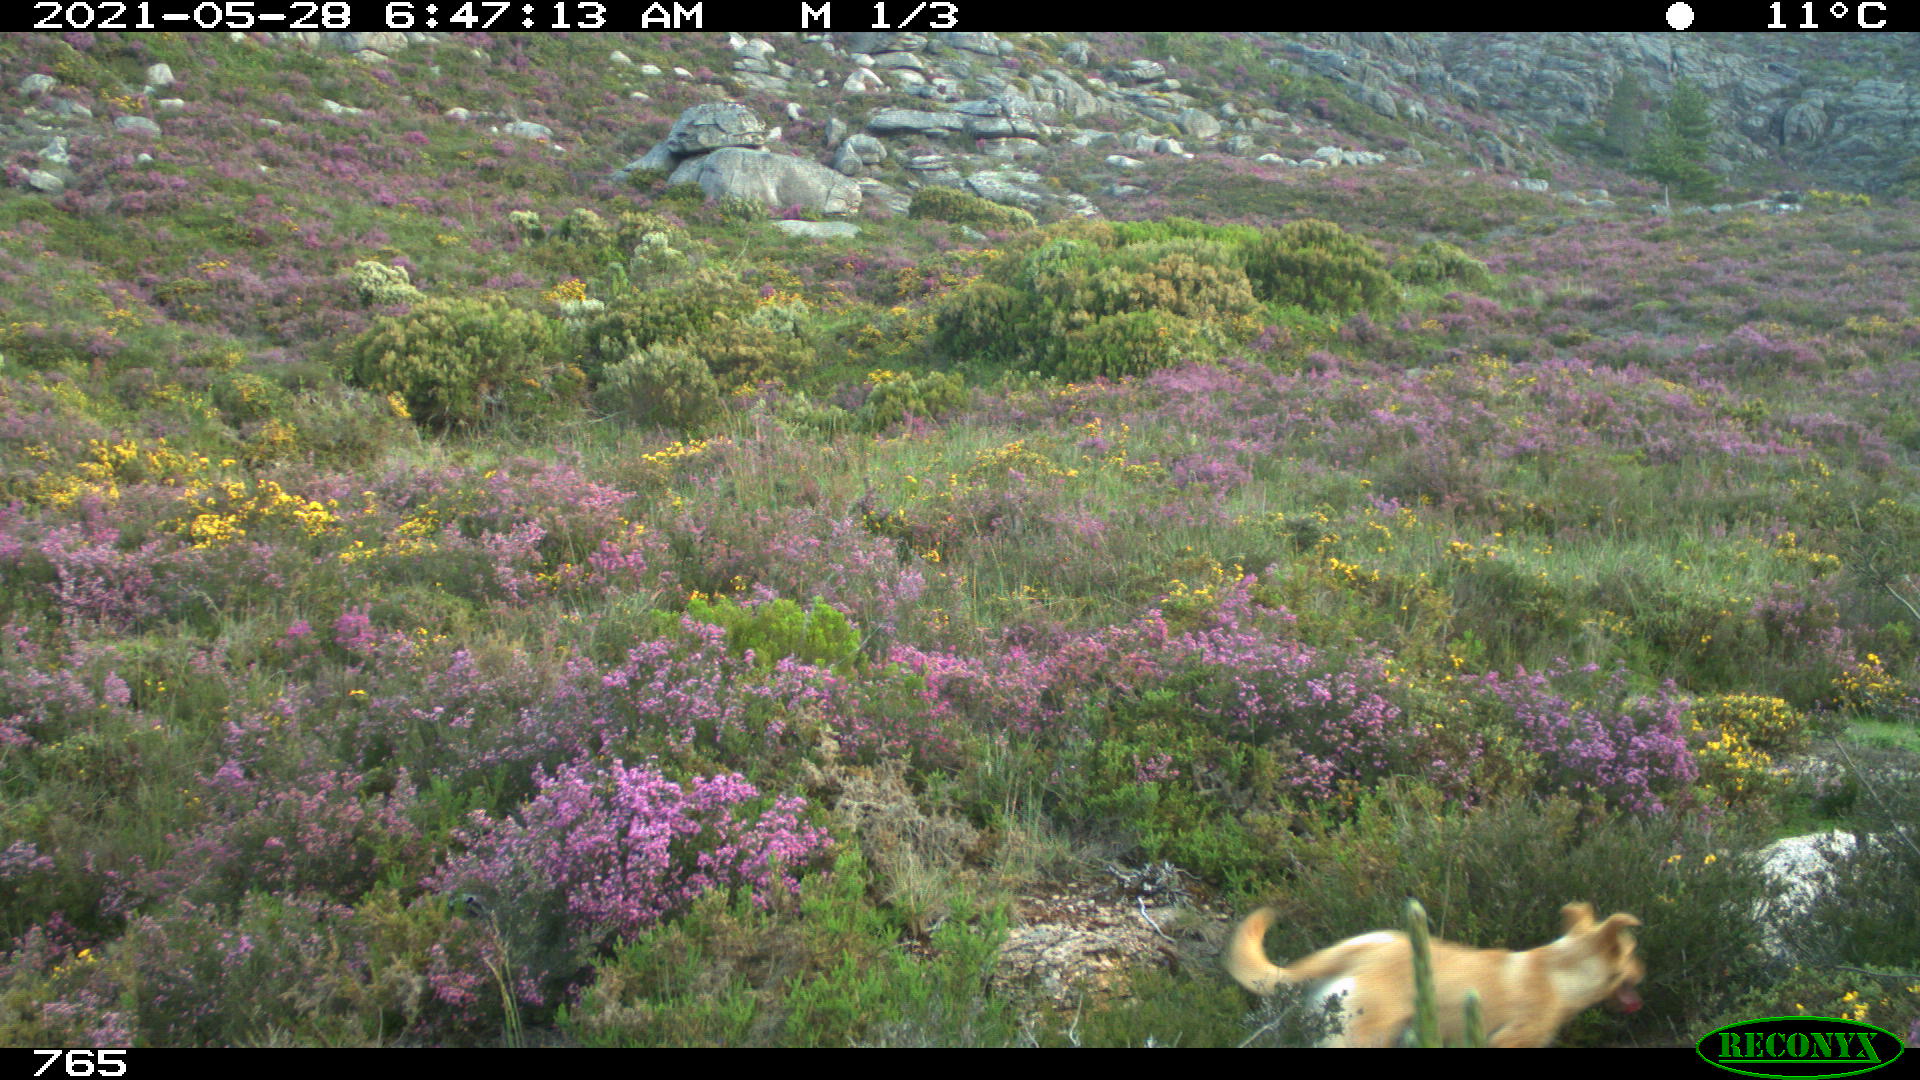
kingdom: Animalia
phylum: Chordata
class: Mammalia
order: Carnivora
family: Canidae
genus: Canis
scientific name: Canis lupus
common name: Gray wolf
